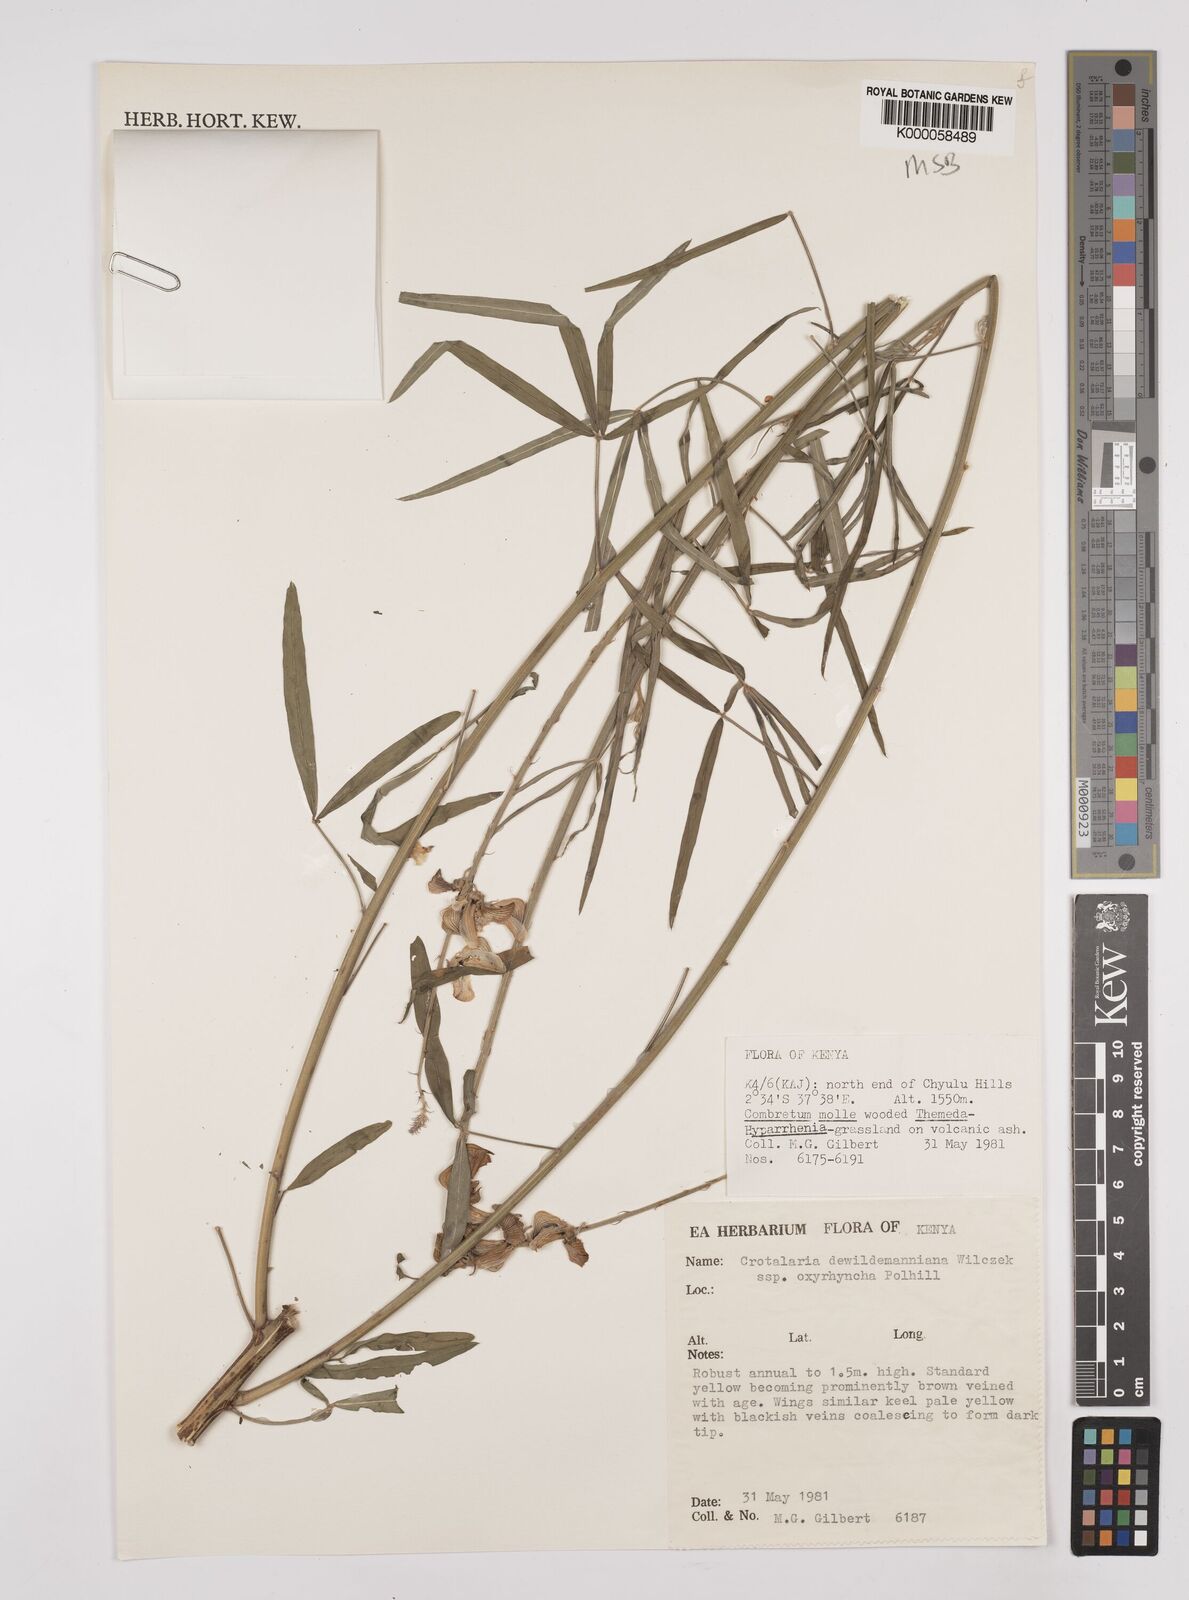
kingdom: Plantae
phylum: Tracheophyta
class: Magnoliopsida
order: Fabales
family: Fabaceae
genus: Crotalaria
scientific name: Crotalaria dewildemaniana
